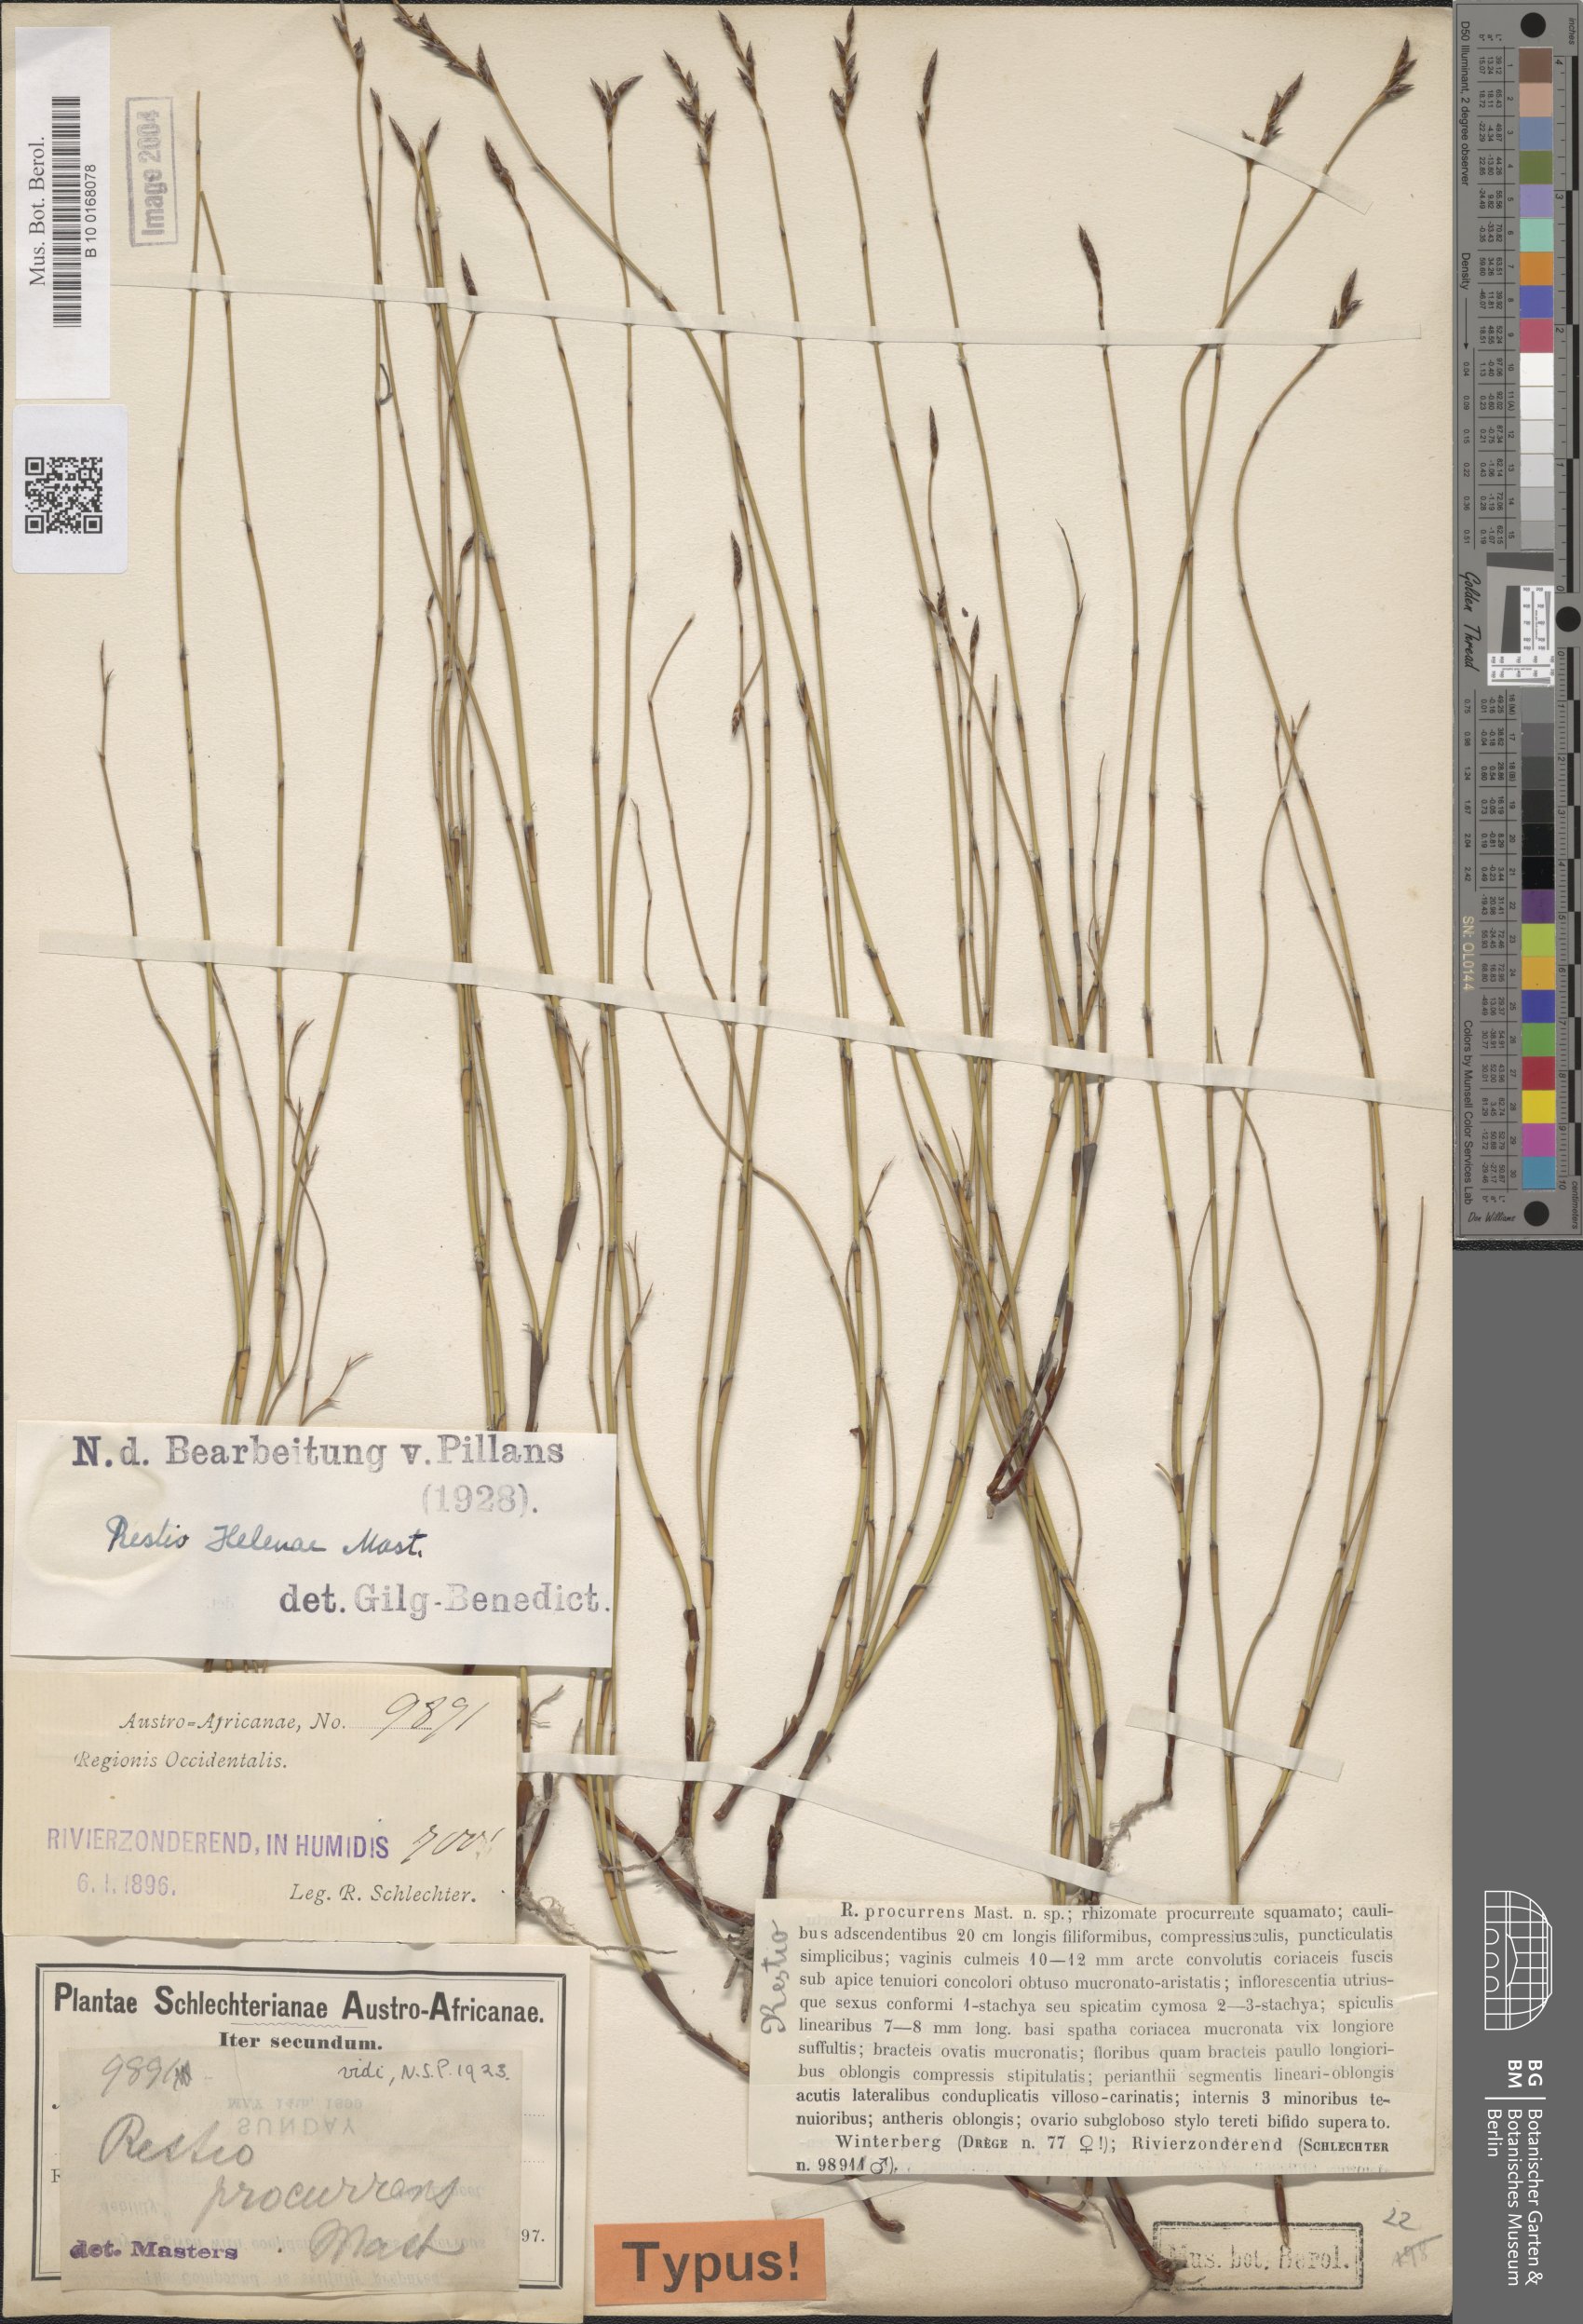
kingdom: Plantae
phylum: Tracheophyta
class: Liliopsida
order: Poales
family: Restionaceae
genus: Restio
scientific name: Restio helenae
